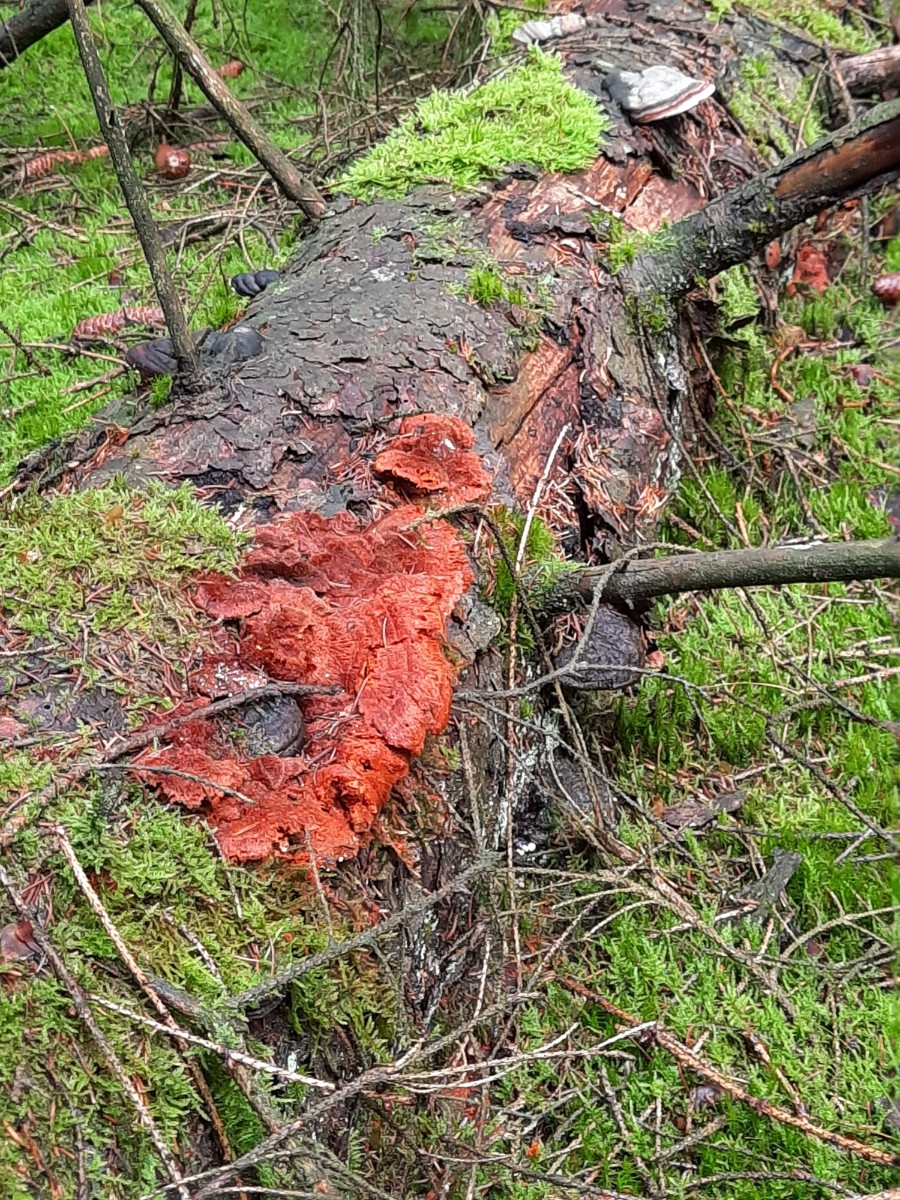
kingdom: Fungi
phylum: Basidiomycota
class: Agaricomycetes
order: Polyporales
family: Pycnoporellaceae
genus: Pycnoporellus
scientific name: Pycnoporellus fulgens
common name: flammeporesvamp
